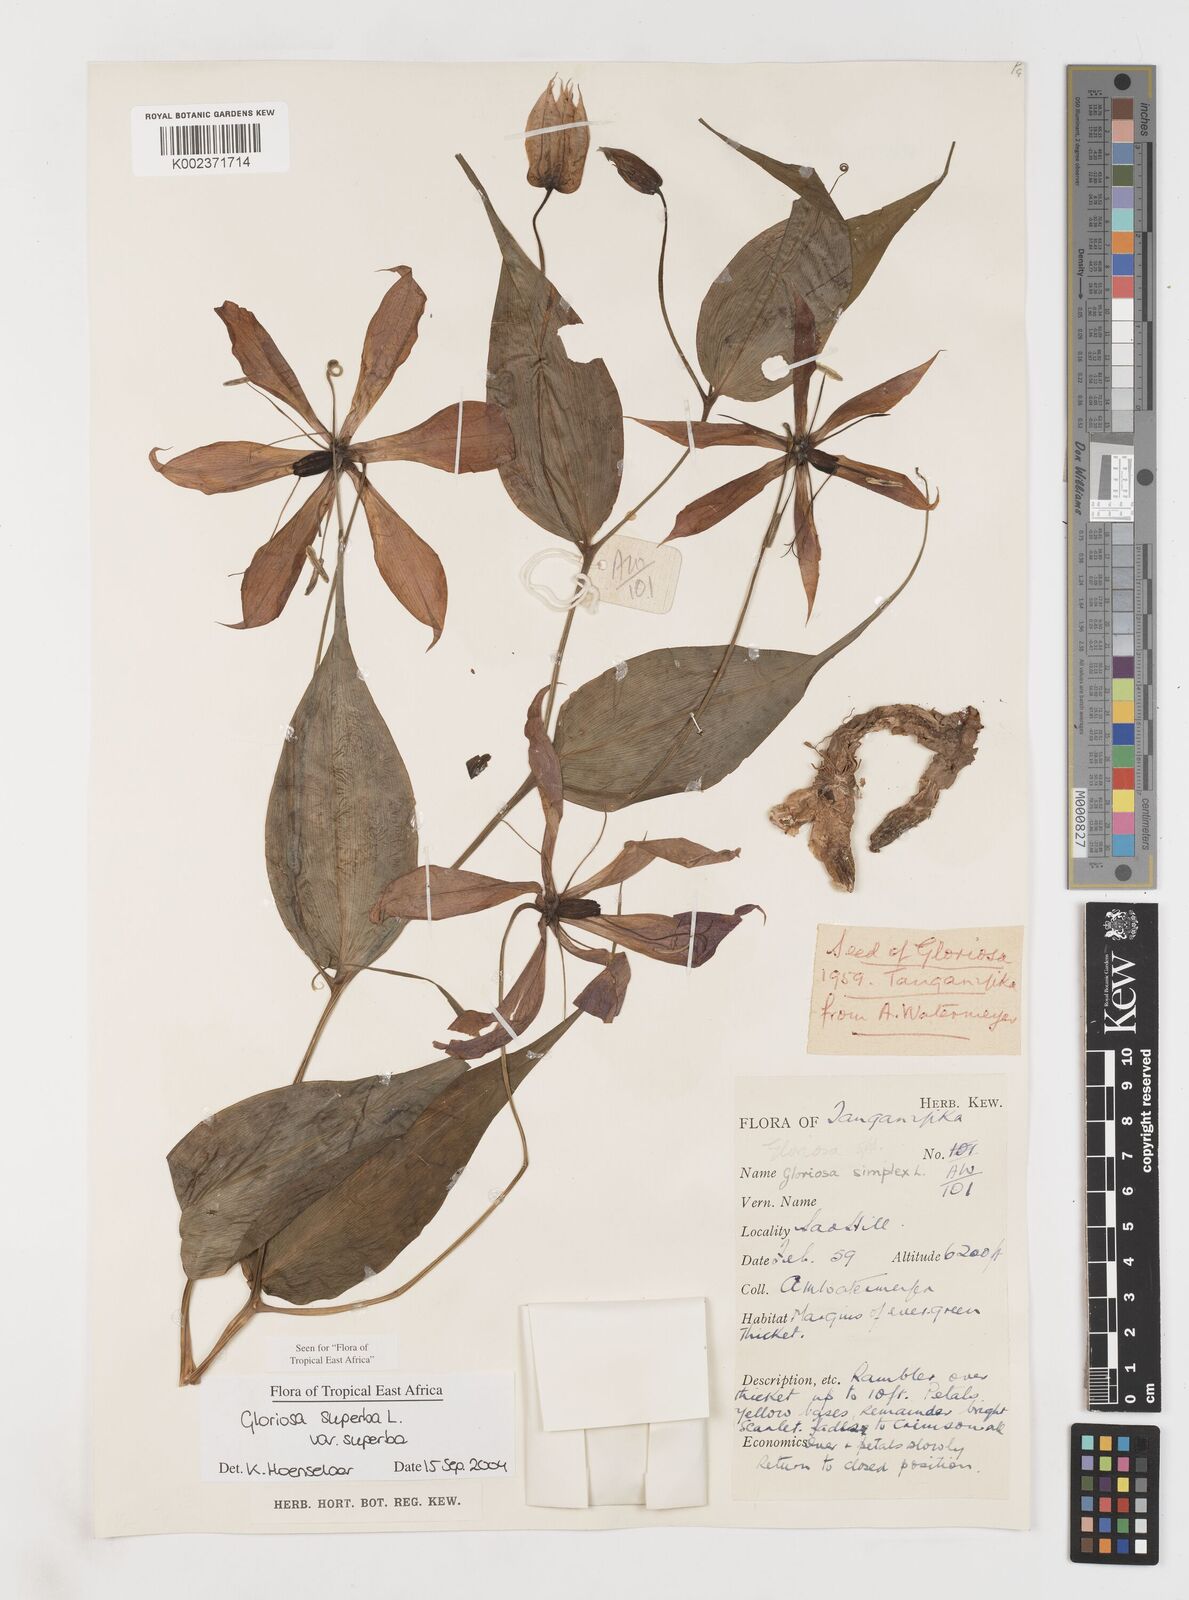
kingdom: Plantae
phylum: Tracheophyta
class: Liliopsida
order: Liliales
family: Colchicaceae
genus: Gloriosa
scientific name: Gloriosa simplex
